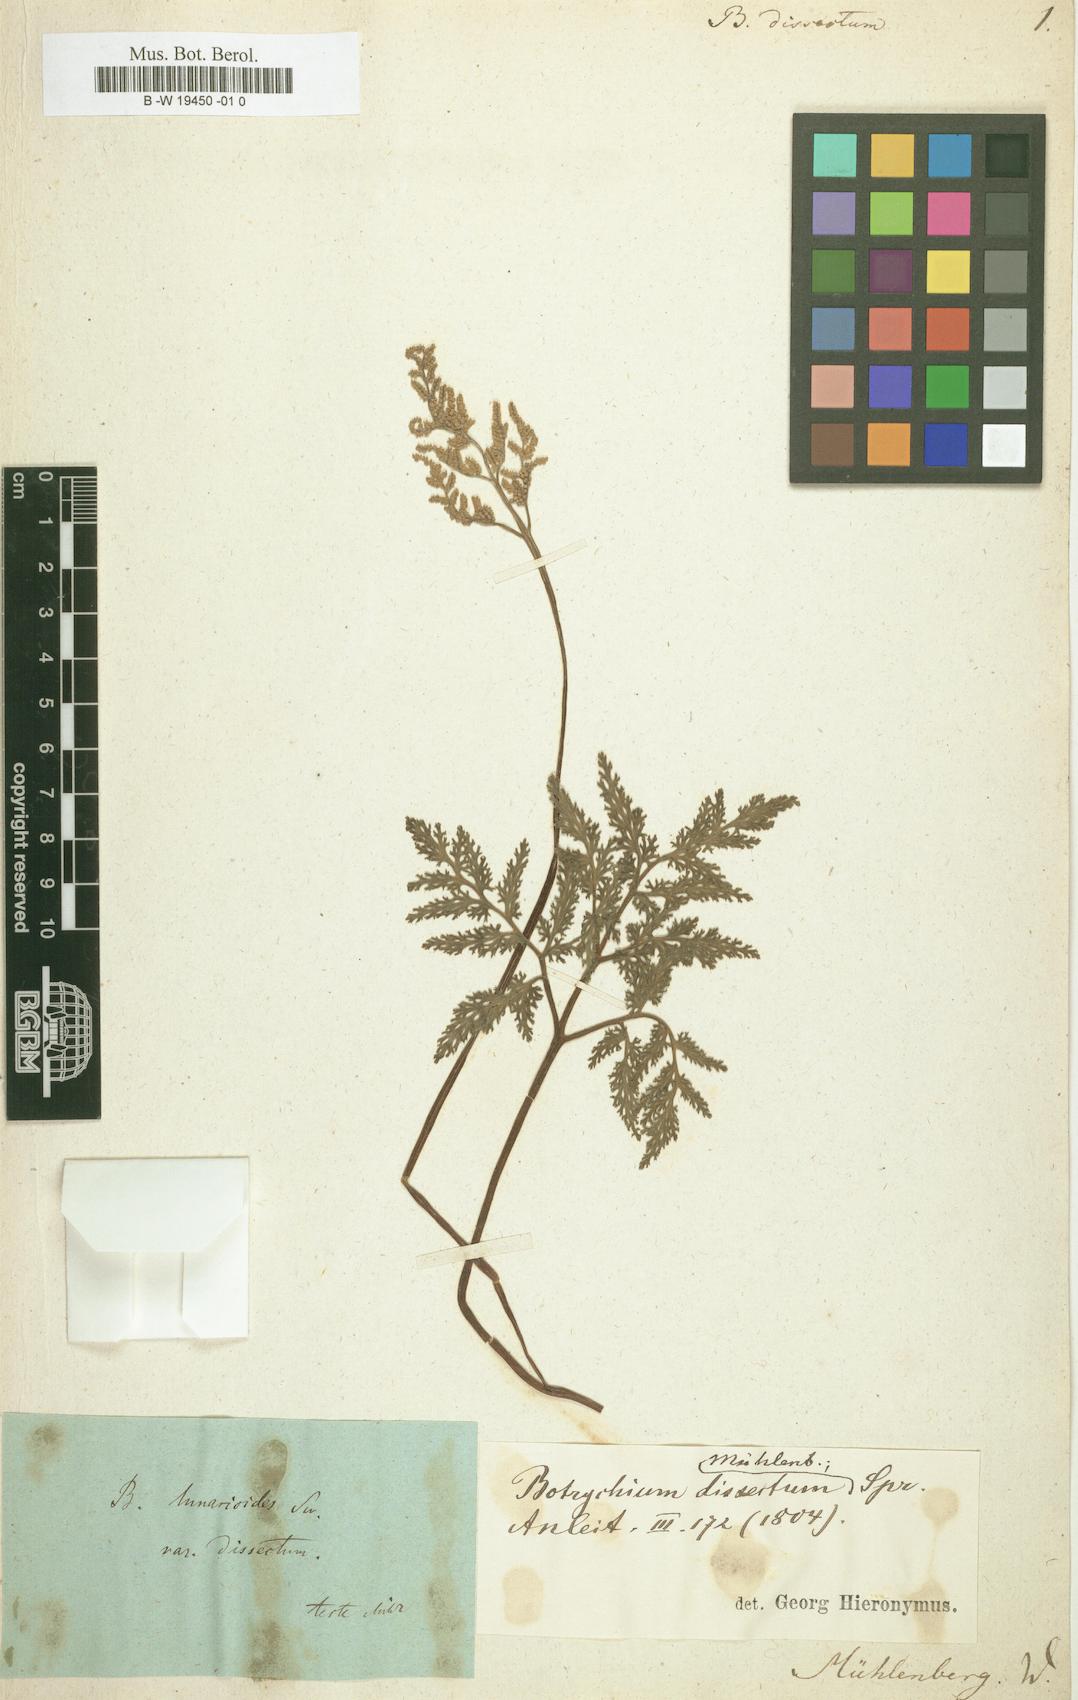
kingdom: Plantae
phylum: Tracheophyta
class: Polypodiopsida
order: Ophioglossales
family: Ophioglossaceae
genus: Sceptridium
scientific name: Sceptridium dissectum
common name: Cut-leaved grapefern
